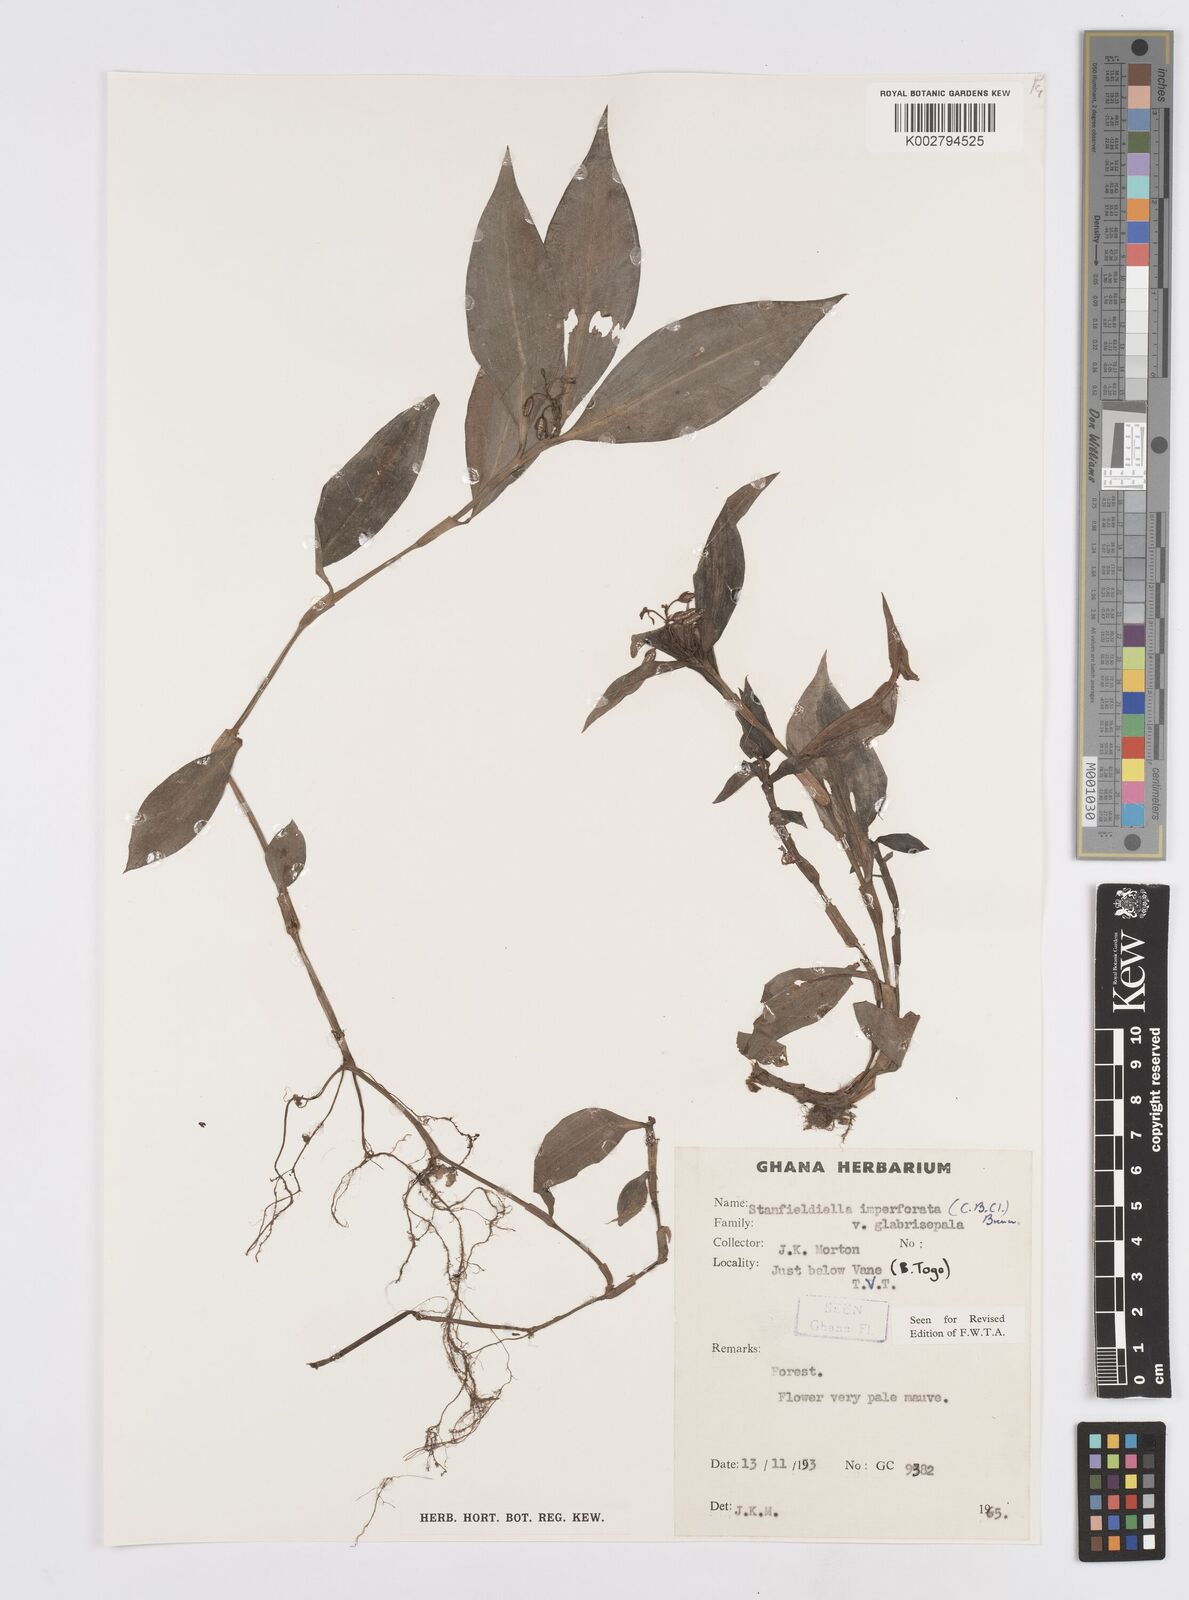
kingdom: Plantae
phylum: Tracheophyta
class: Liliopsida
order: Commelinales
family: Commelinaceae
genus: Stanfieldiella
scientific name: Stanfieldiella imperforata
